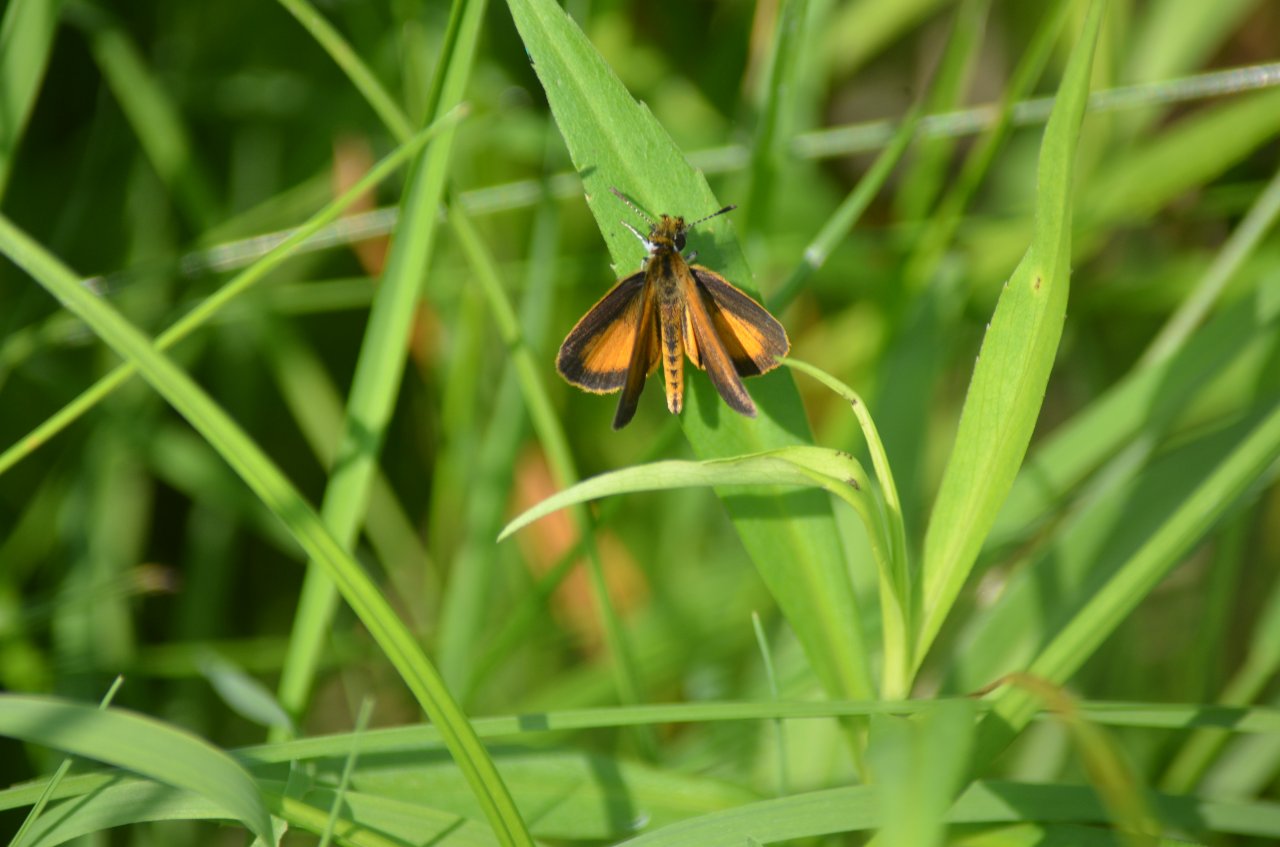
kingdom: Animalia
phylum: Arthropoda
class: Insecta
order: Lepidoptera
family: Hesperiidae
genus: Ancyloxypha
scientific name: Ancyloxypha numitor
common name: Least Skipper
